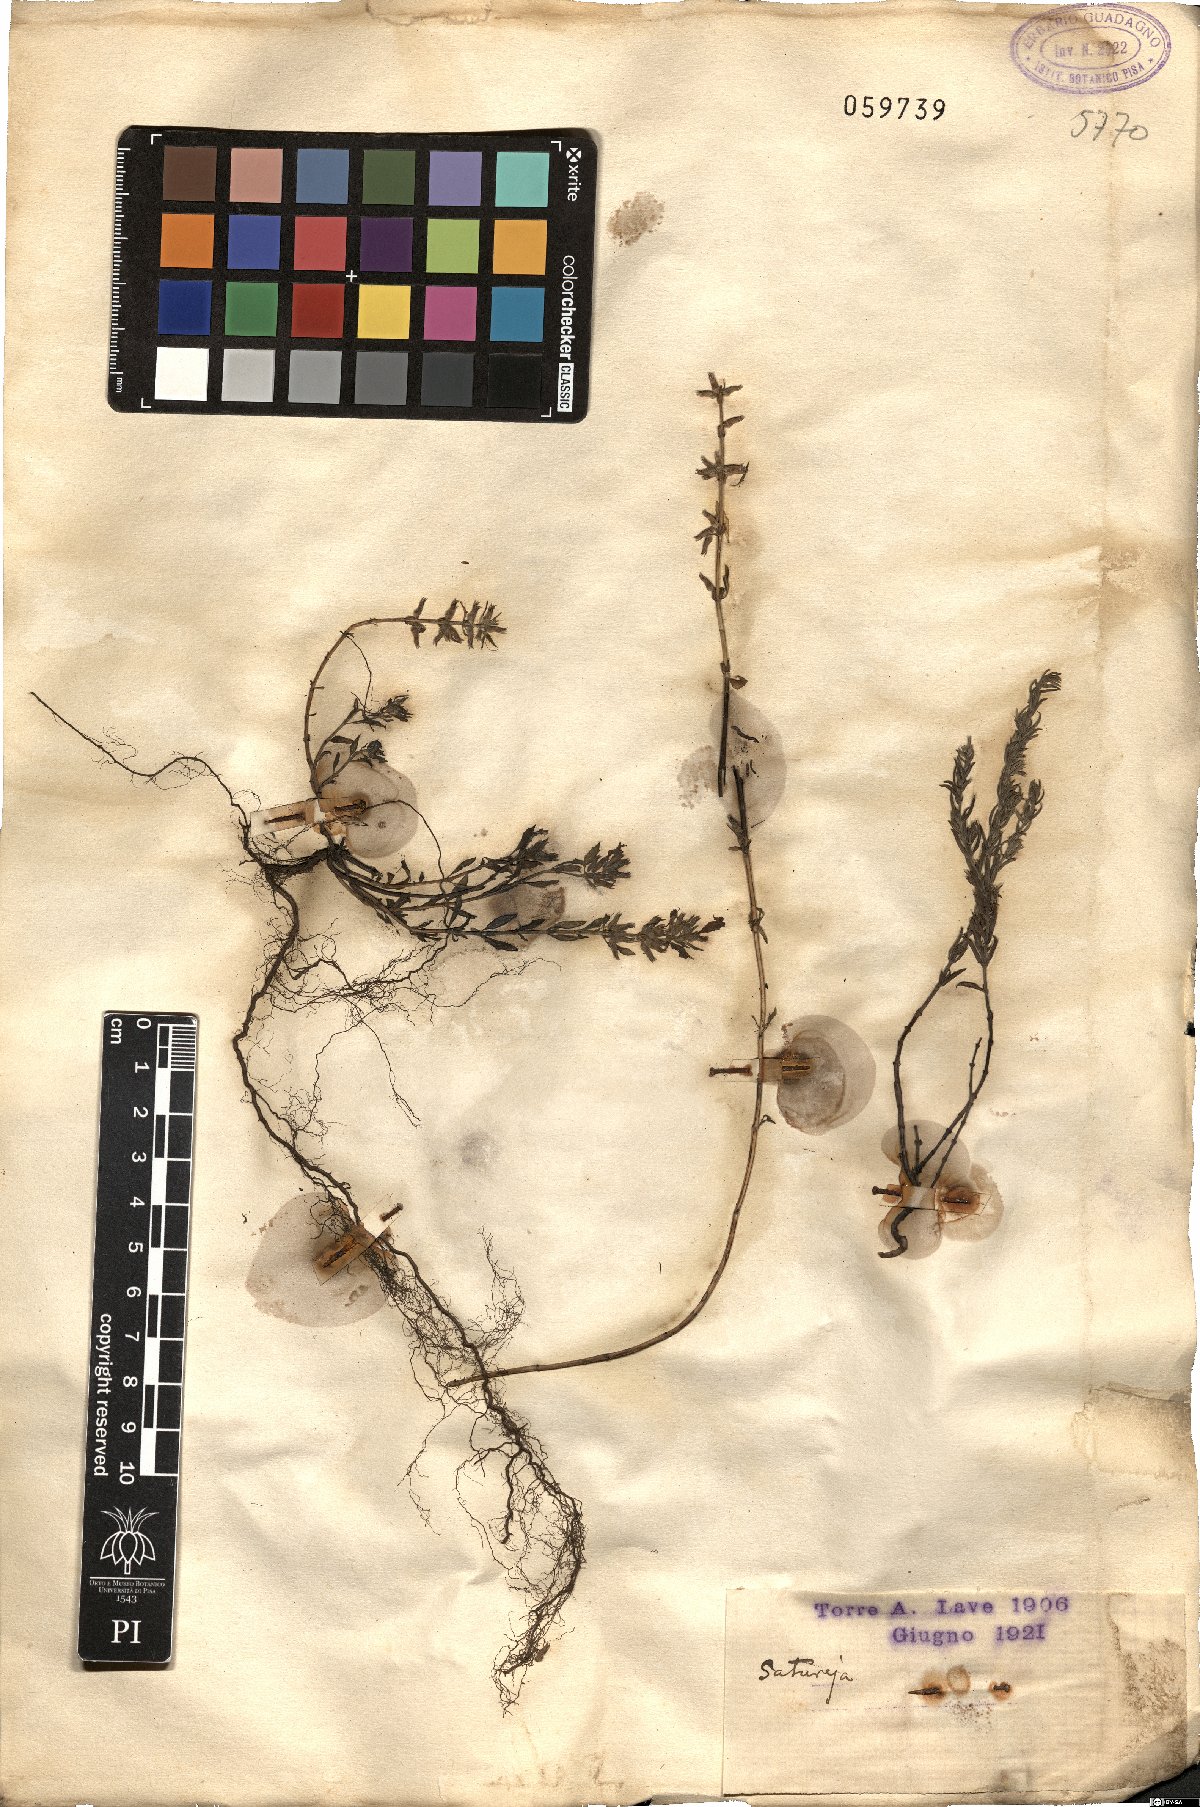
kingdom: Plantae
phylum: Tracheophyta
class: Magnoliopsida
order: Lamiales
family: Lamiaceae
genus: Satureja
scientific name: Satureja
